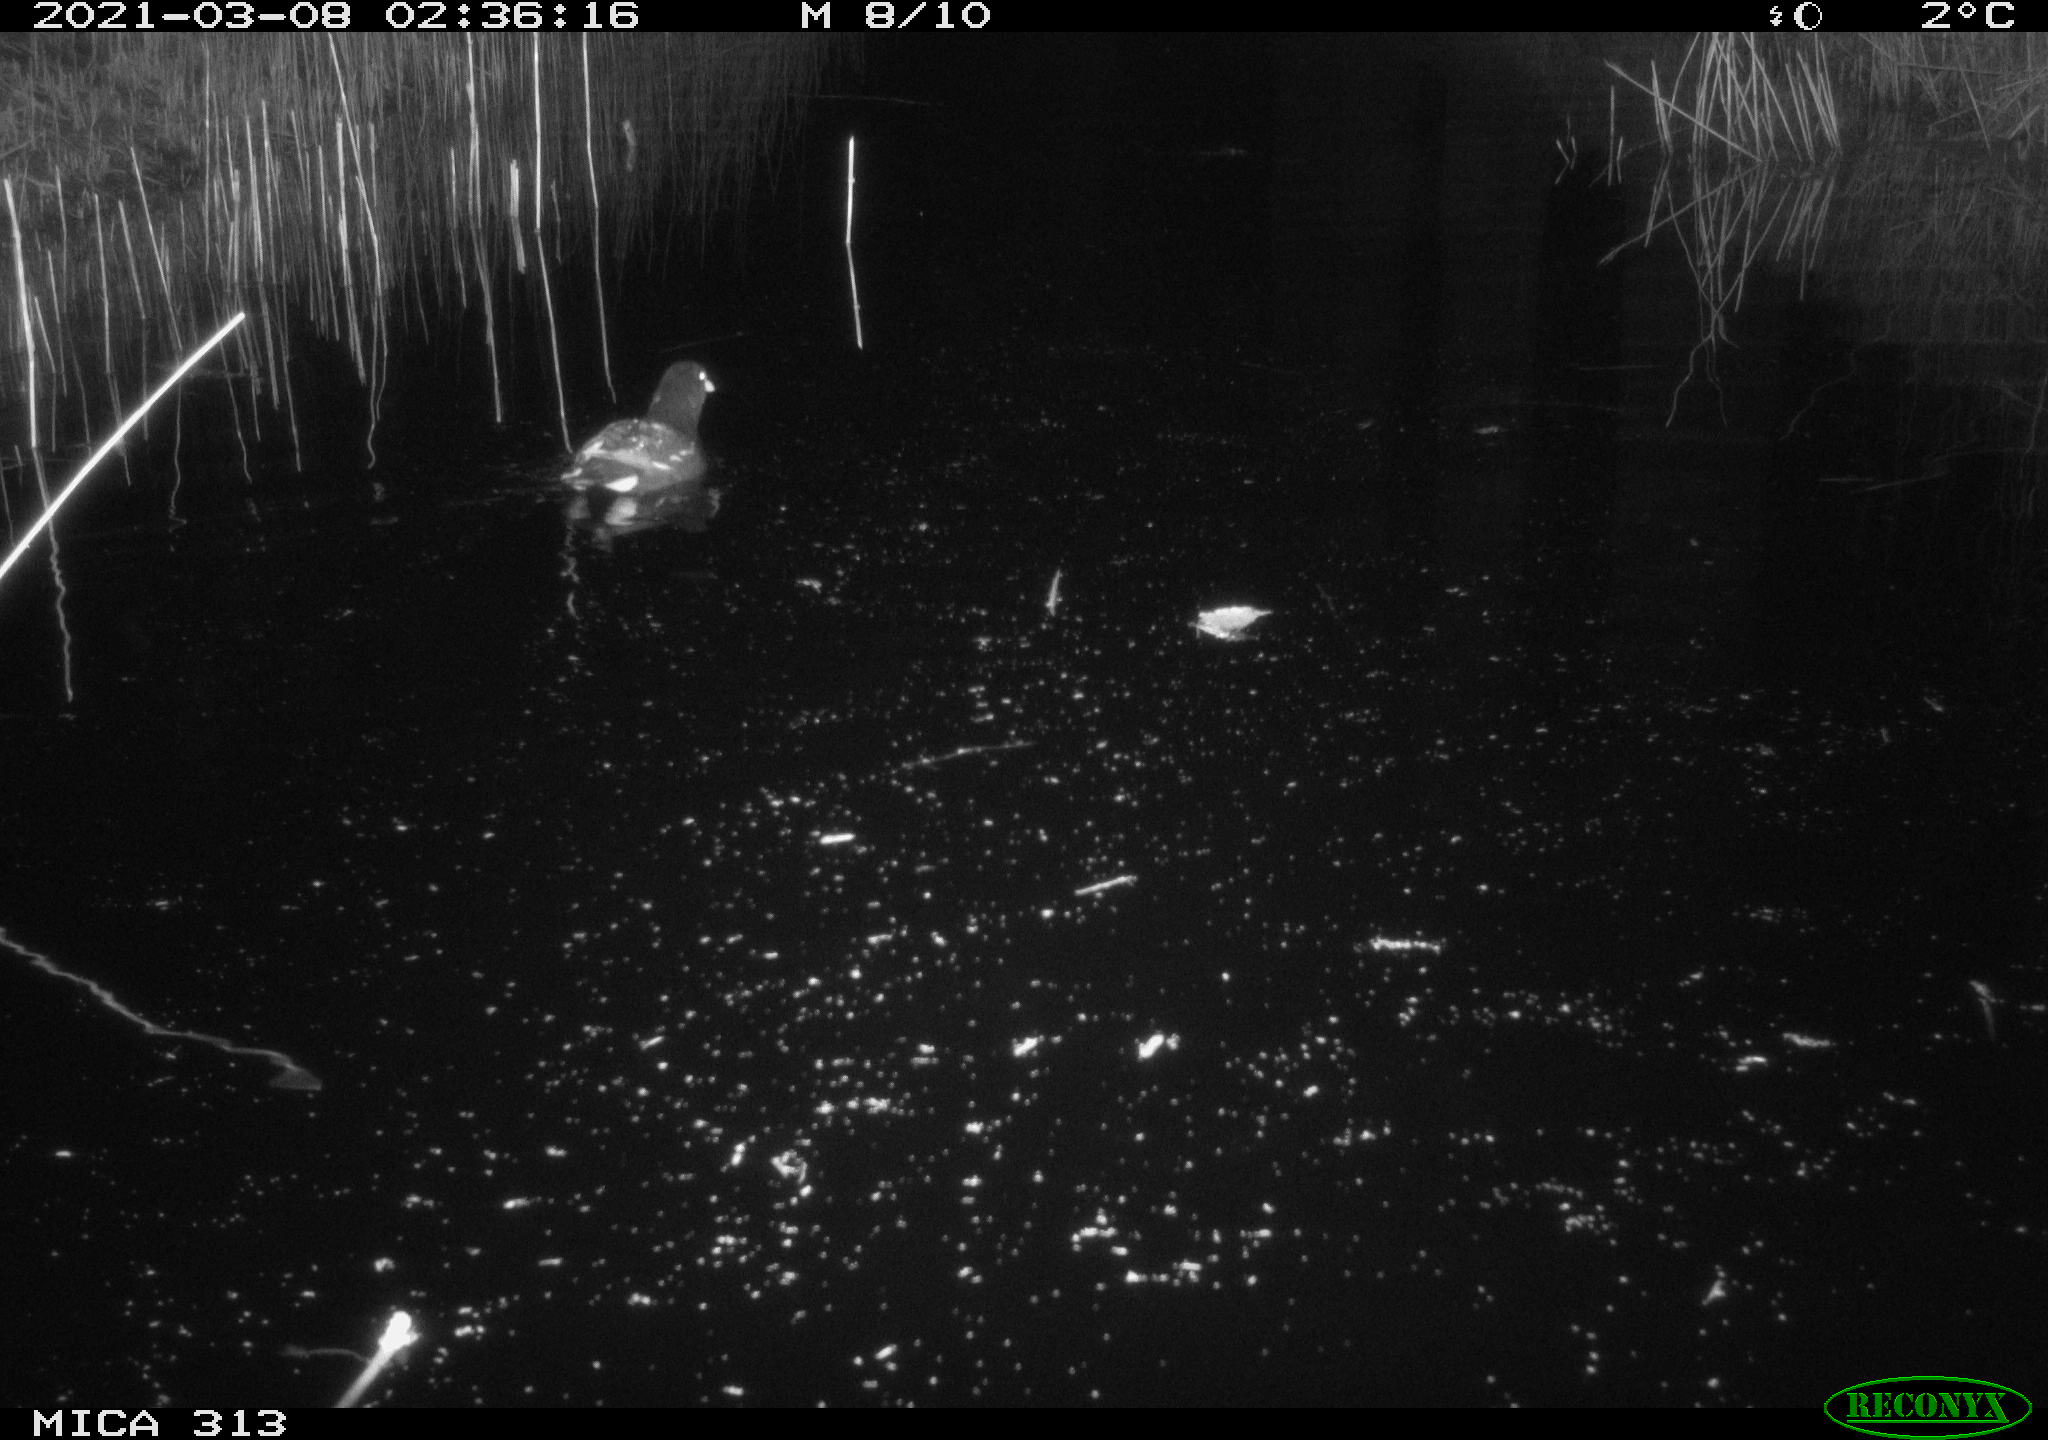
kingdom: Animalia
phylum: Chordata
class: Aves
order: Gruiformes
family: Rallidae
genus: Gallinula
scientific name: Gallinula chloropus
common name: Common moorhen
